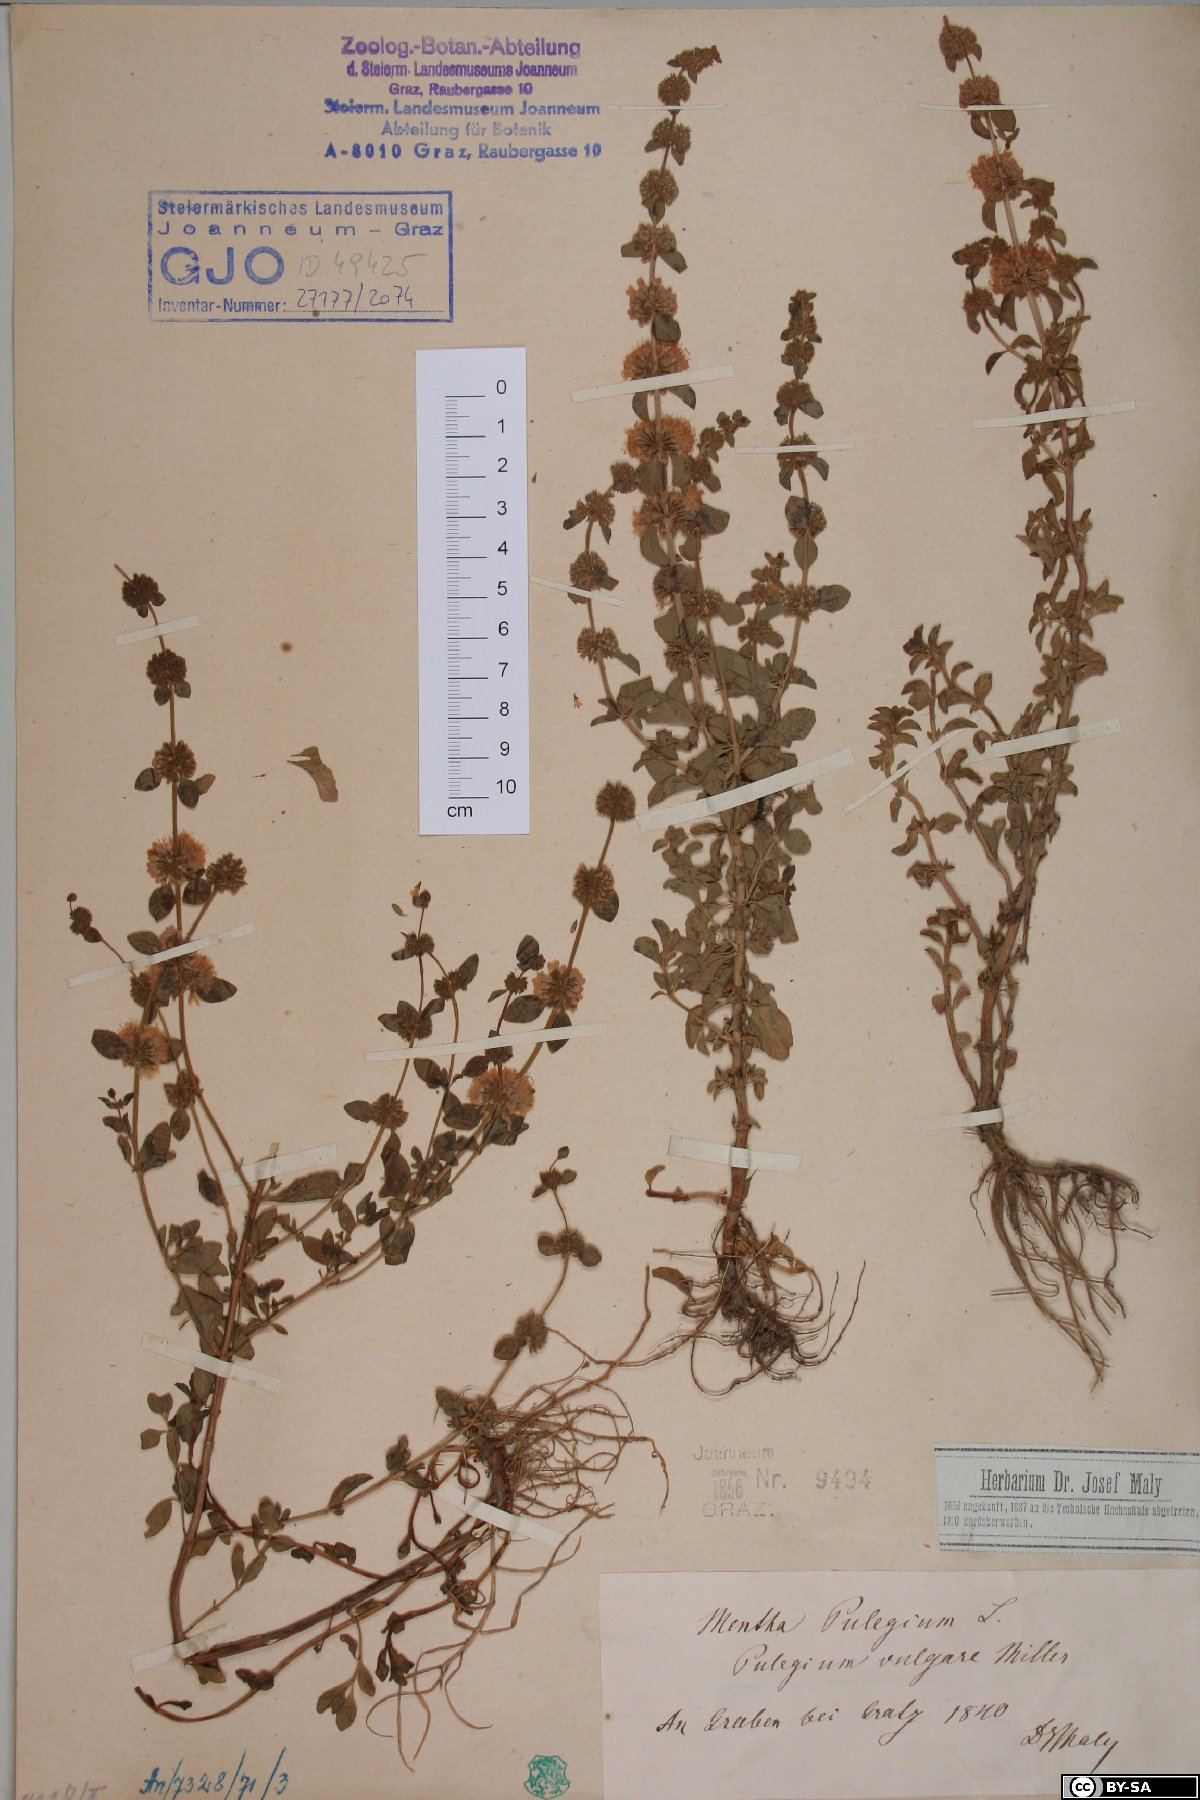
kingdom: Plantae
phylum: Tracheophyta
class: Magnoliopsida
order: Lamiales
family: Lamiaceae
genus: Mentha
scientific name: Mentha pulegium
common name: Pennyroyal
